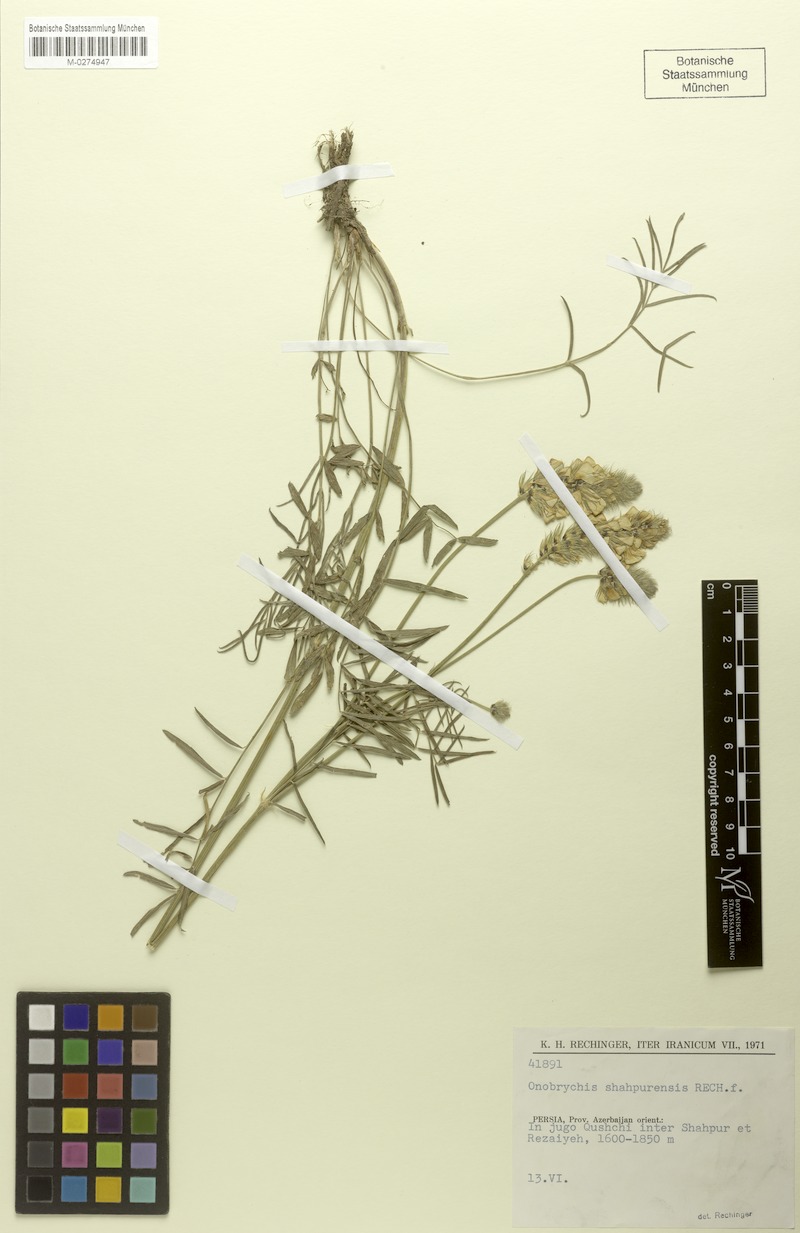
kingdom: Plantae
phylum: Tracheophyta
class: Magnoliopsida
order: Fabales
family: Fabaceae
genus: Onobrychis
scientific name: Onobrychis shahpurensis
